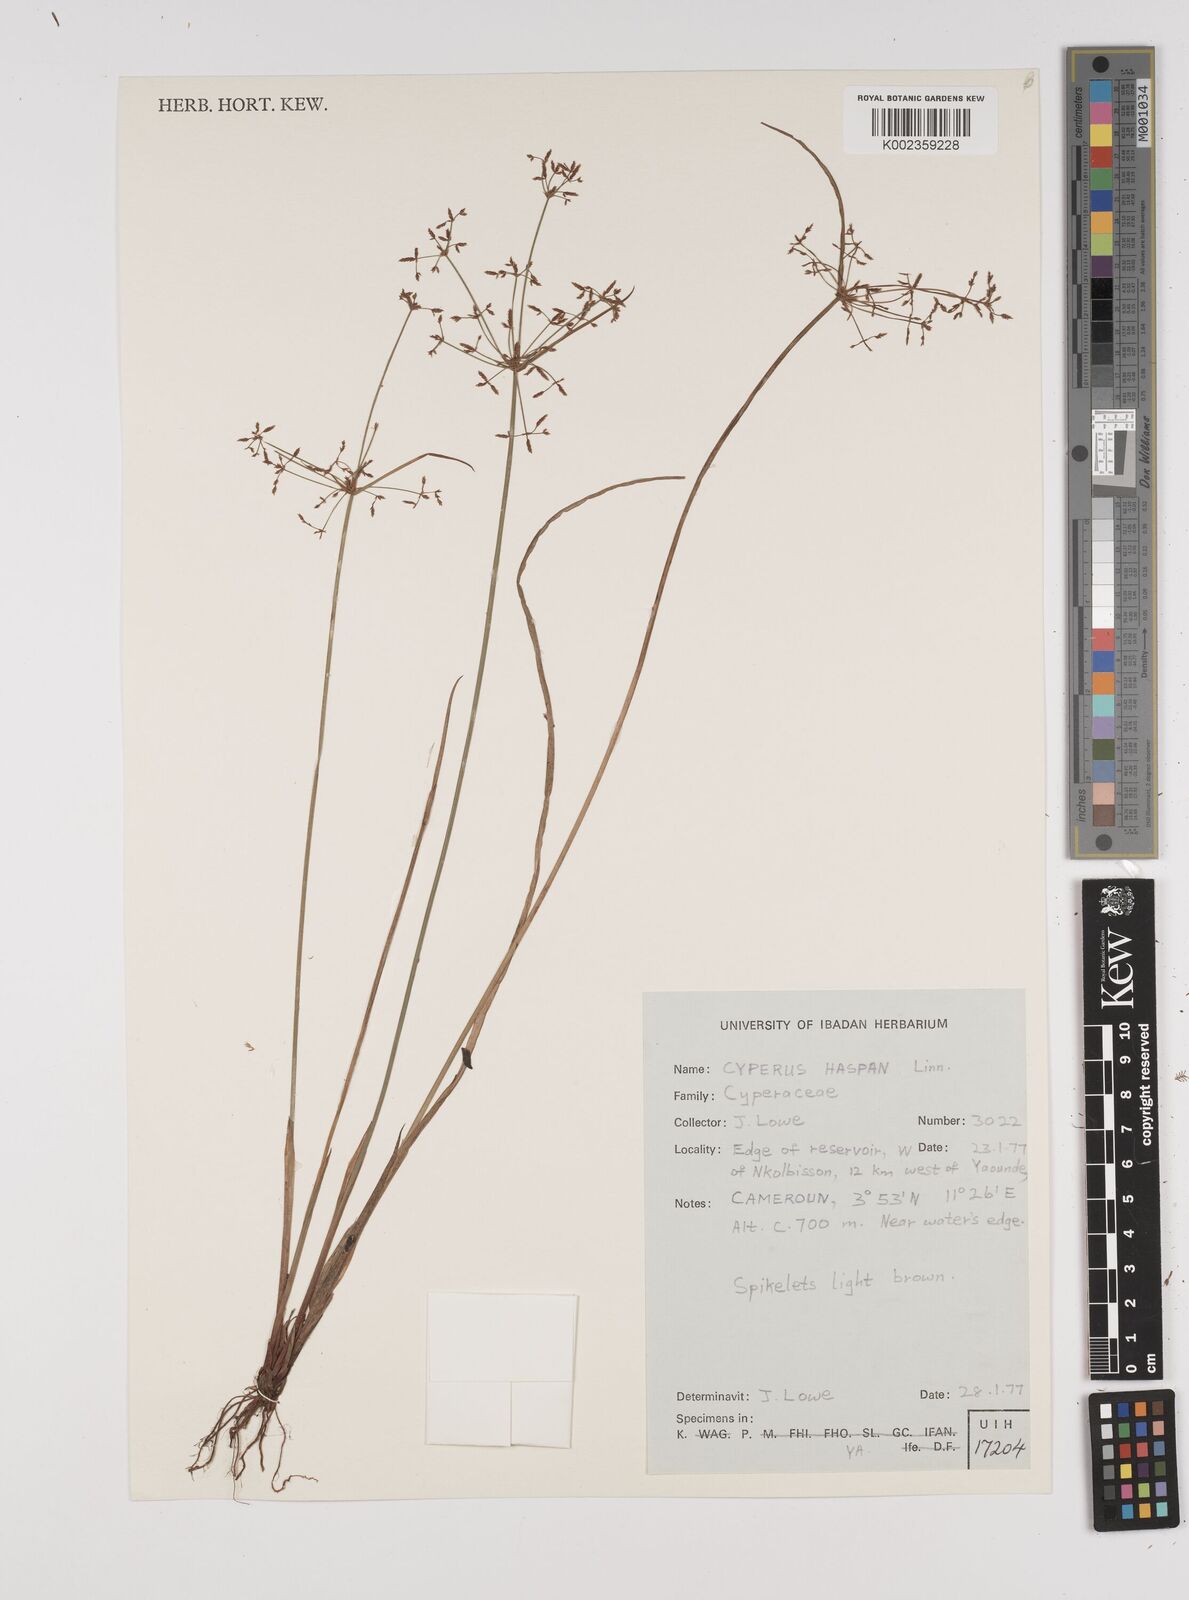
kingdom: Plantae
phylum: Tracheophyta
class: Liliopsida
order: Poales
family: Cyperaceae
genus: Cyperus
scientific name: Cyperus haspan
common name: Haspan flatsedge
